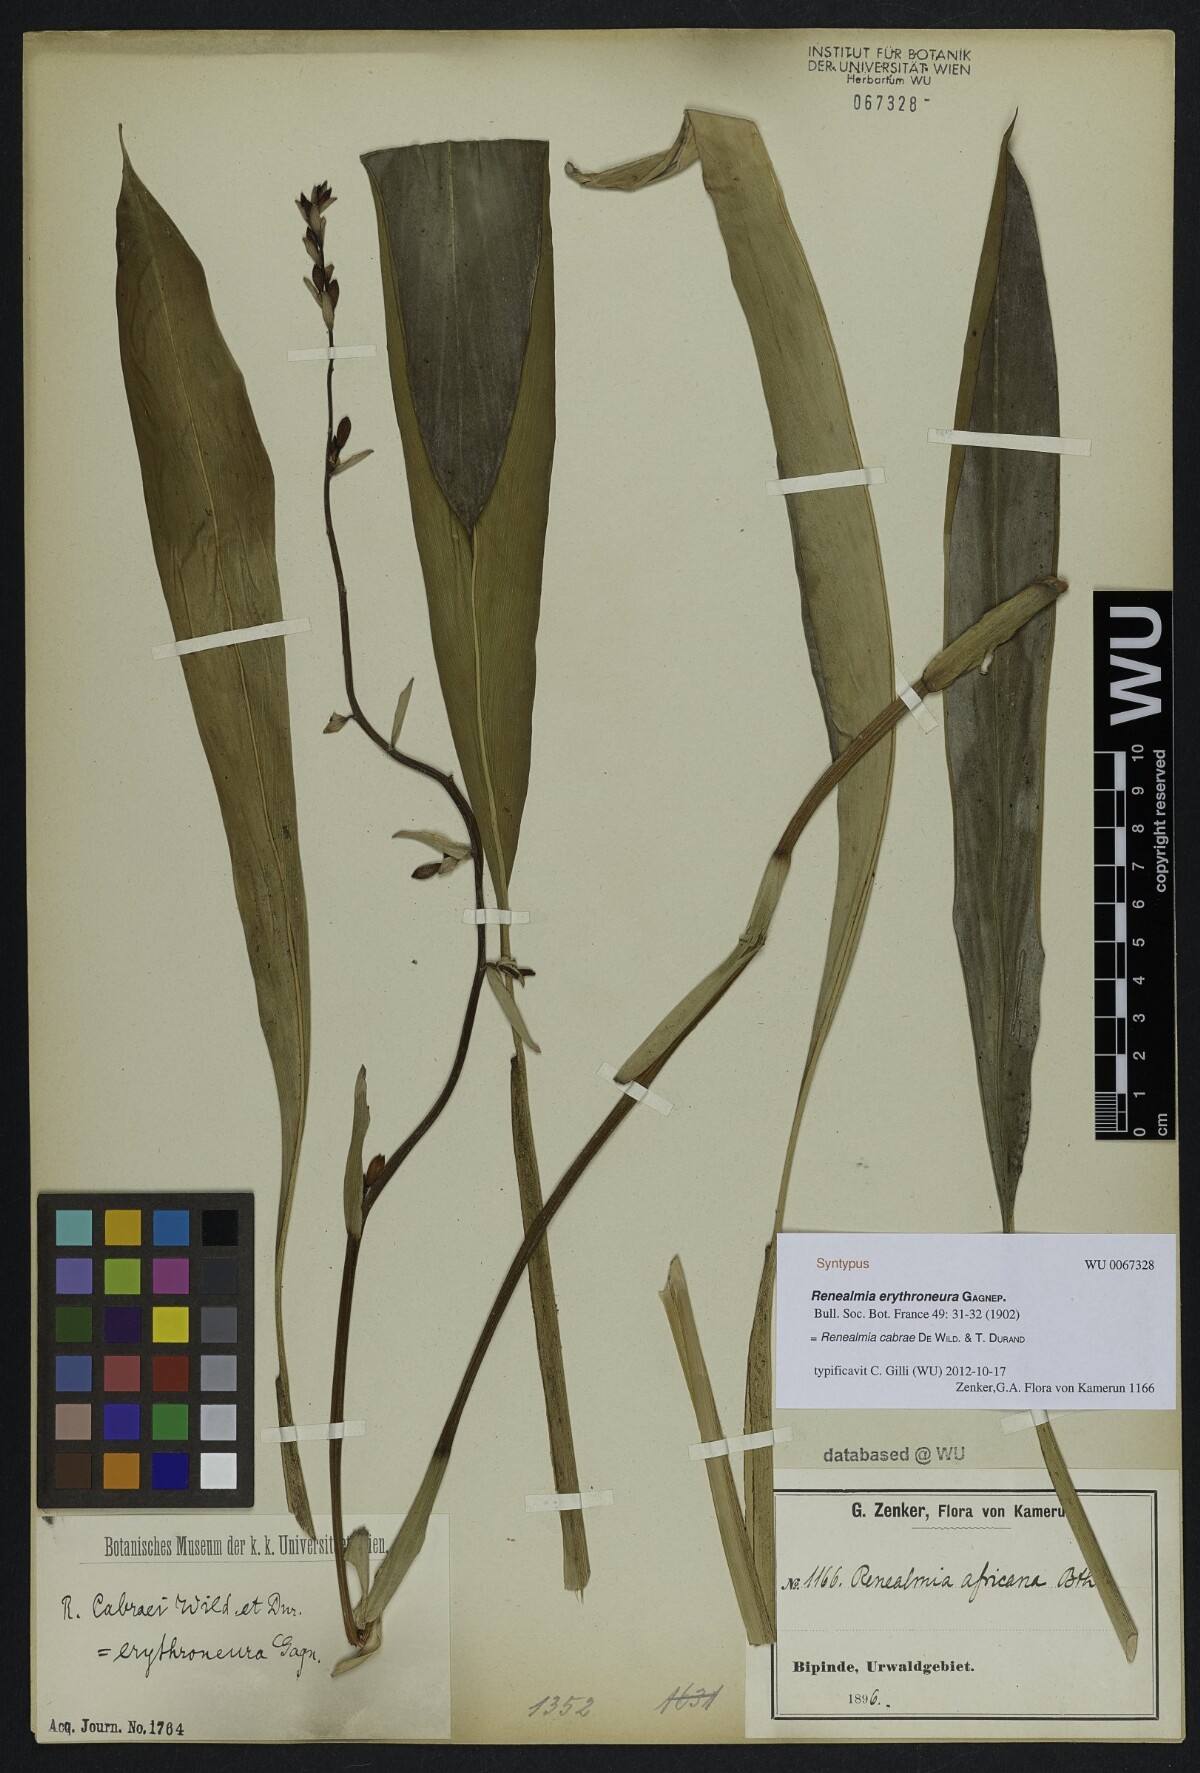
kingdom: Plantae
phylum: Tracheophyta
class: Liliopsida
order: Zingiberales
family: Zingiberaceae
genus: Renealmia
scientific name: Renealmia cabrae
